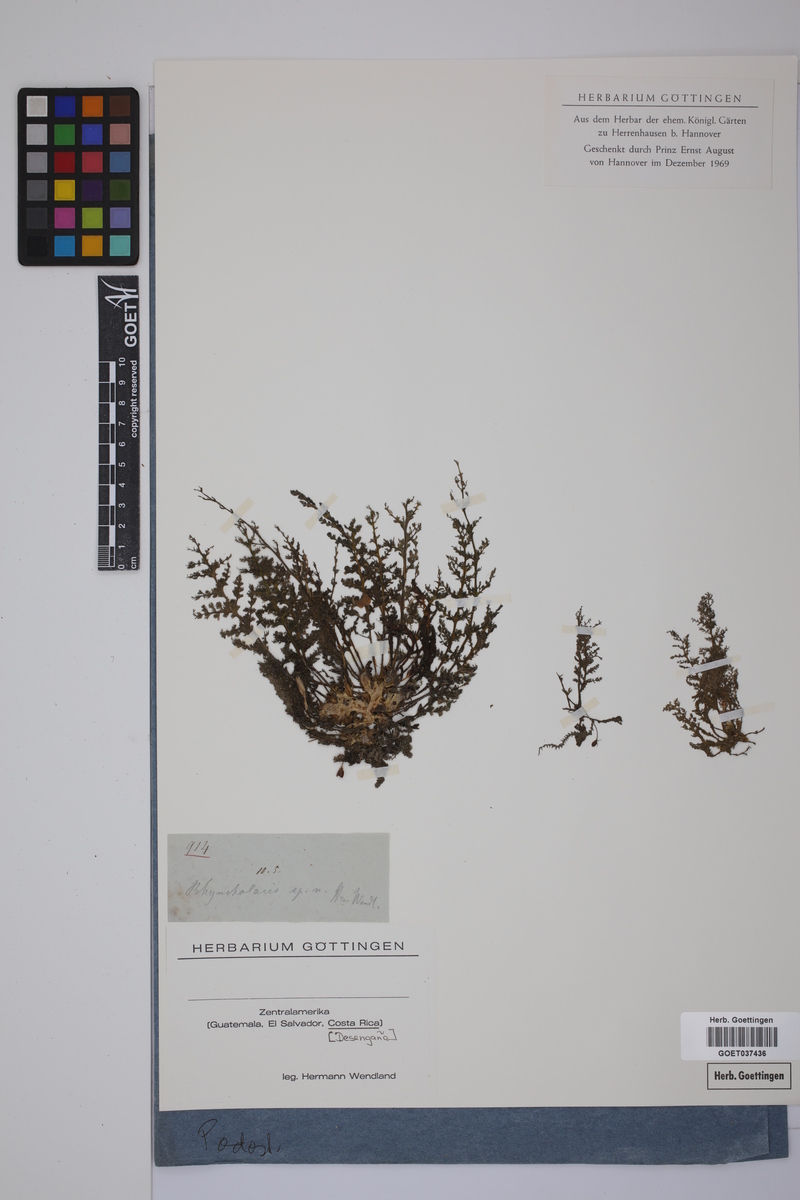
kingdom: Plantae
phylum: Tracheophyta
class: Magnoliopsida
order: Malpighiales
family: Podostemaceae
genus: Rhyncholacis
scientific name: Rhyncholacis
